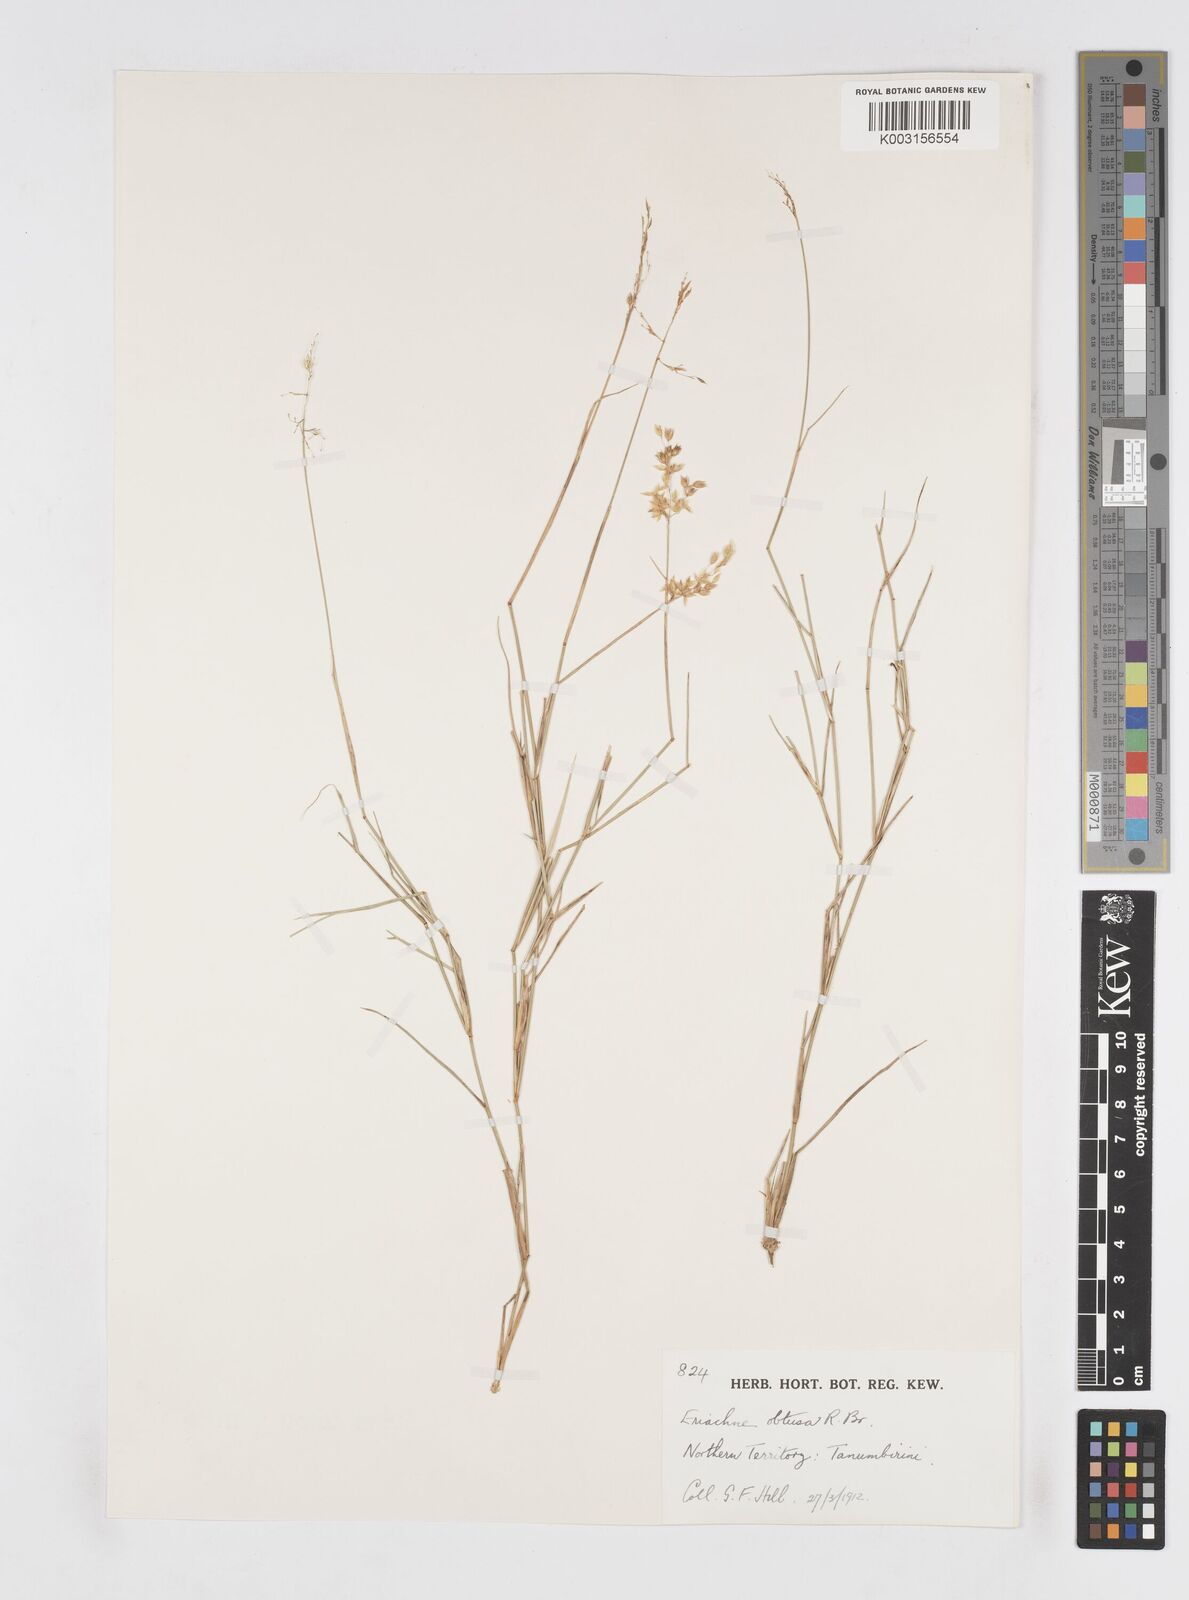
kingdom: Plantae
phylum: Tracheophyta
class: Liliopsida
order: Poales
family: Poaceae
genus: Eriachne
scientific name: Eriachne obtusa
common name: Northern wanderrie grass
